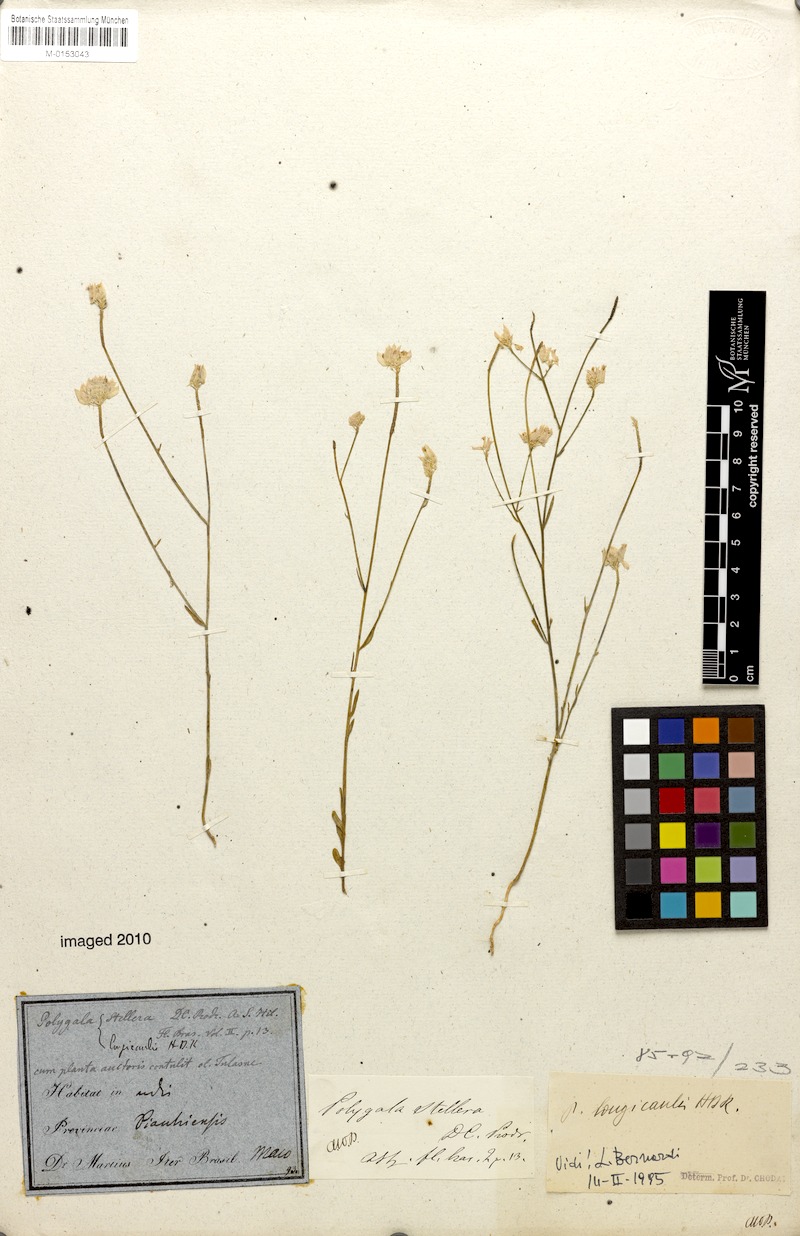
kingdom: Plantae
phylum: Tracheophyta
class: Magnoliopsida
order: Fabales
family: Polygalaceae
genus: Polygala
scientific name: Polygala longicaulis
